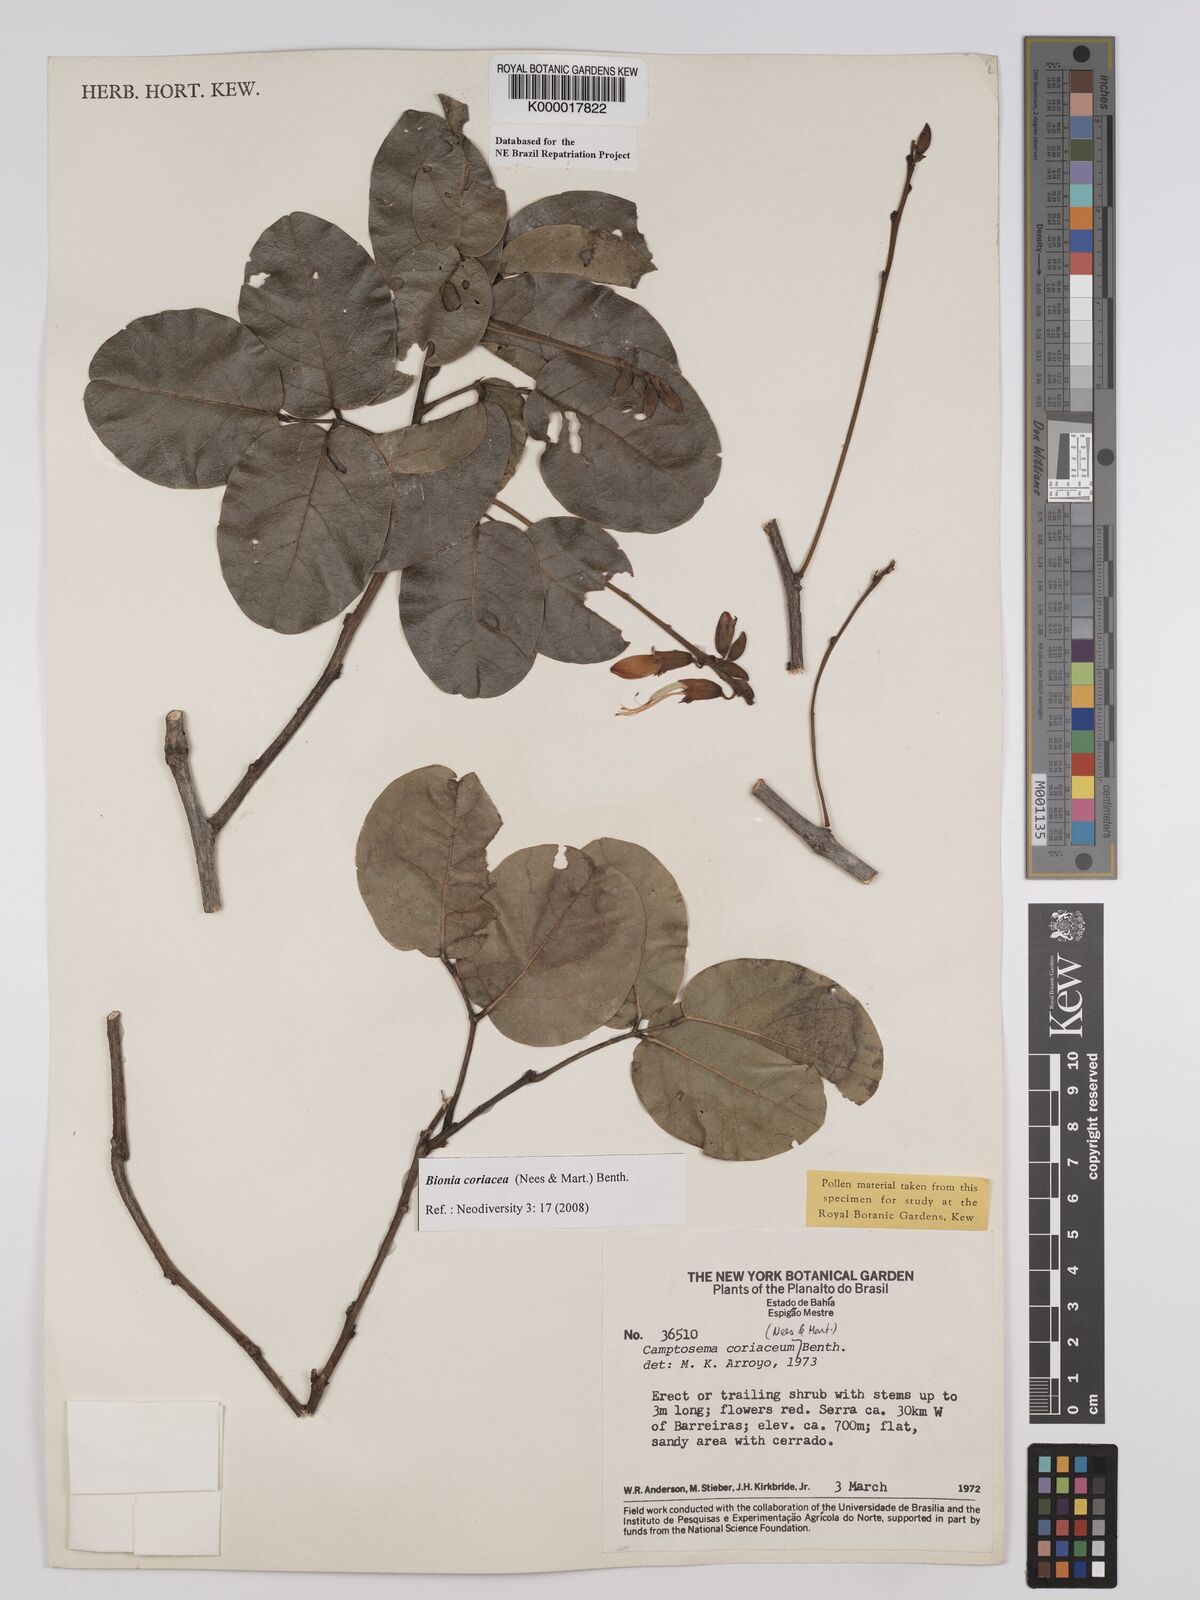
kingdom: Plantae
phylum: Tracheophyta
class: Magnoliopsida
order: Fabales
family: Fabaceae
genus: Camptosema
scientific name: Camptosema coriaceum
